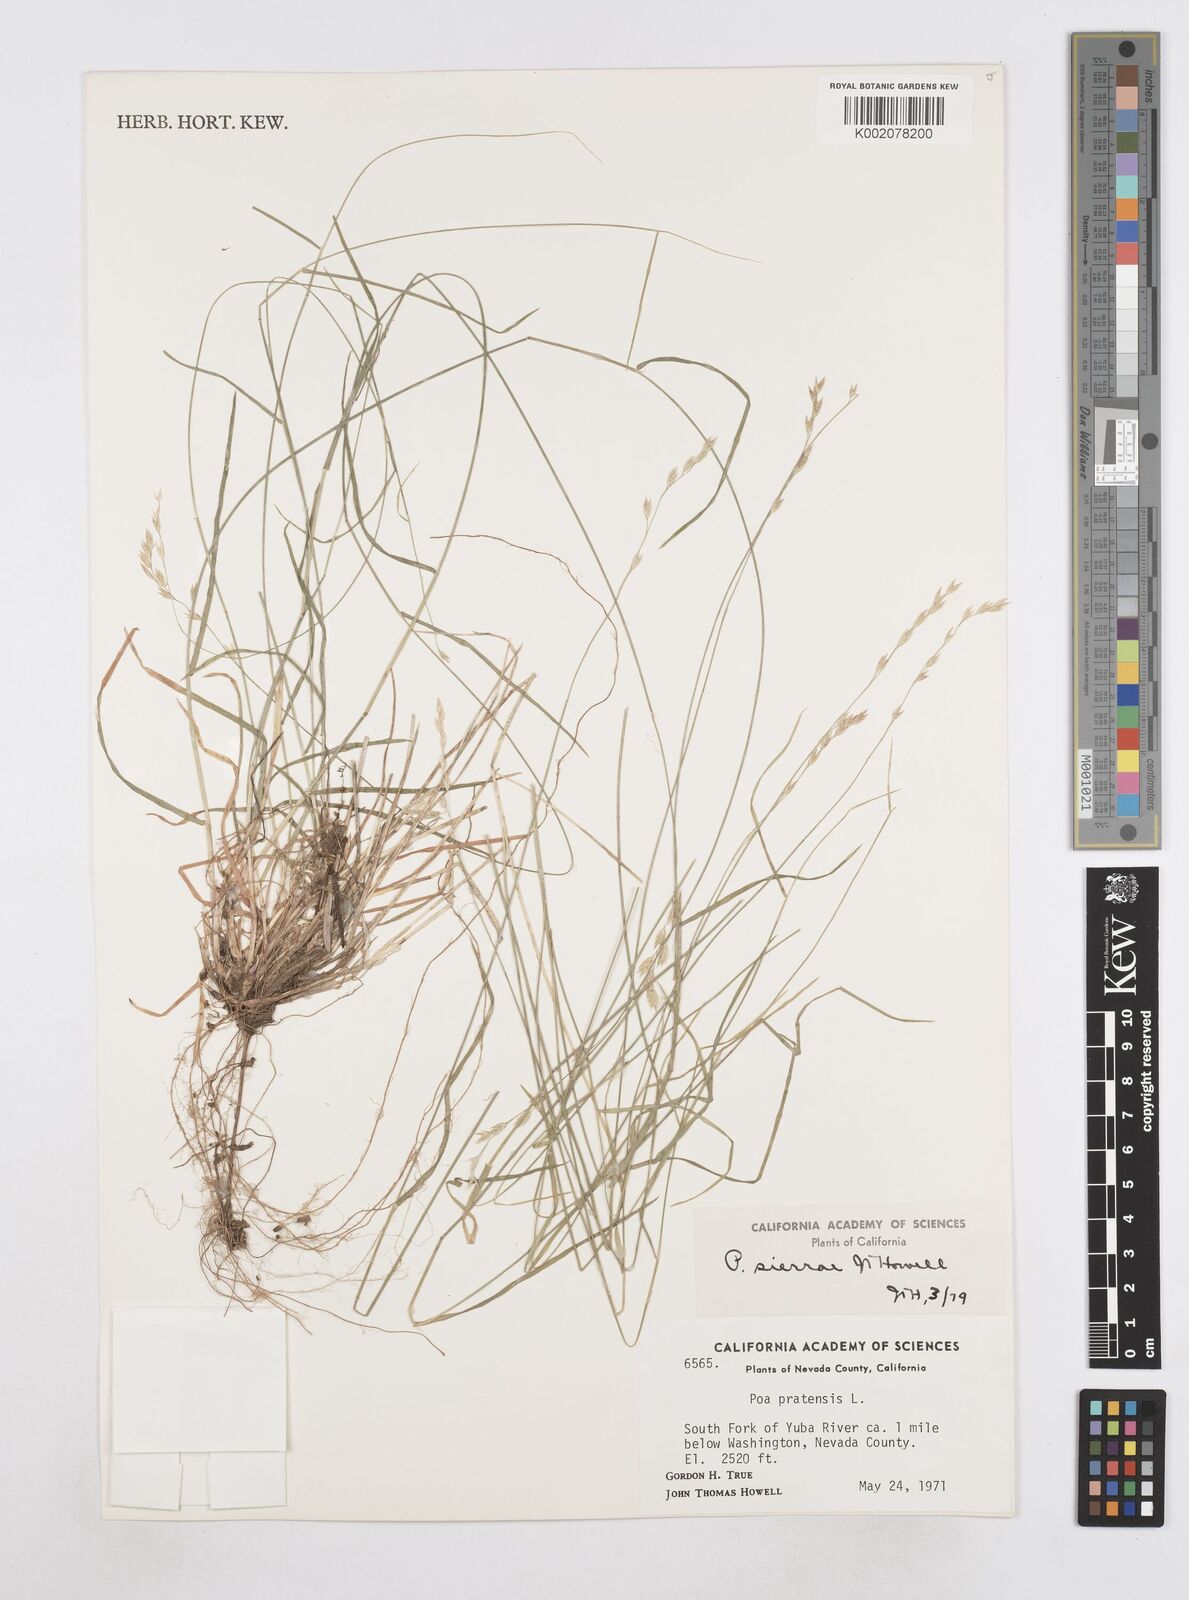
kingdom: Plantae
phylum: Tracheophyta
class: Liliopsida
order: Poales
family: Poaceae
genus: Poa
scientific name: Poa sierrae
